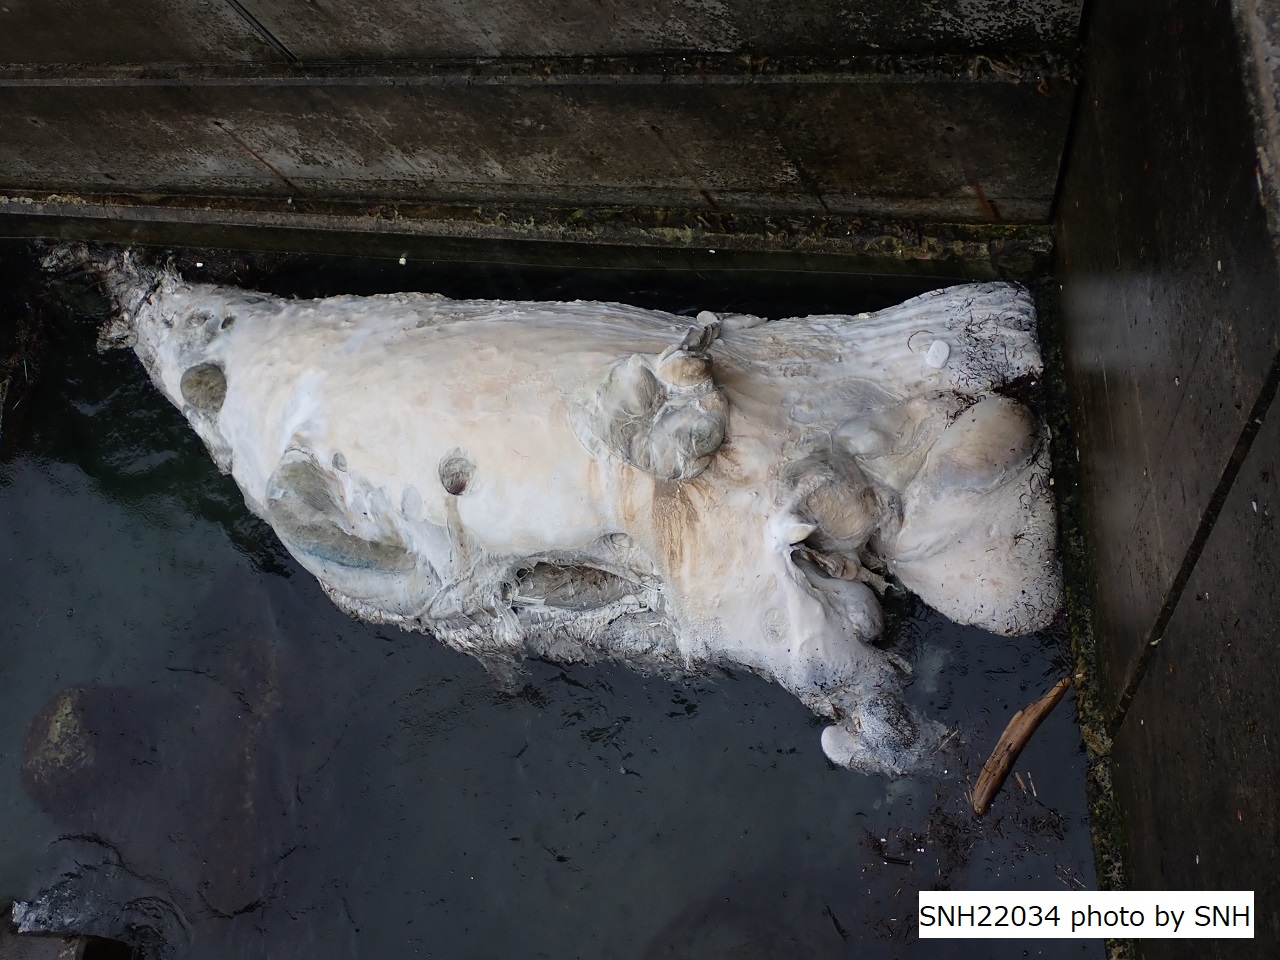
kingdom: Animalia
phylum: Chordata
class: Mammalia
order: Cetacea
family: Balaenopteridae
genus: Megaptera
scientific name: Megaptera novaeangliae
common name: Humpback whale
